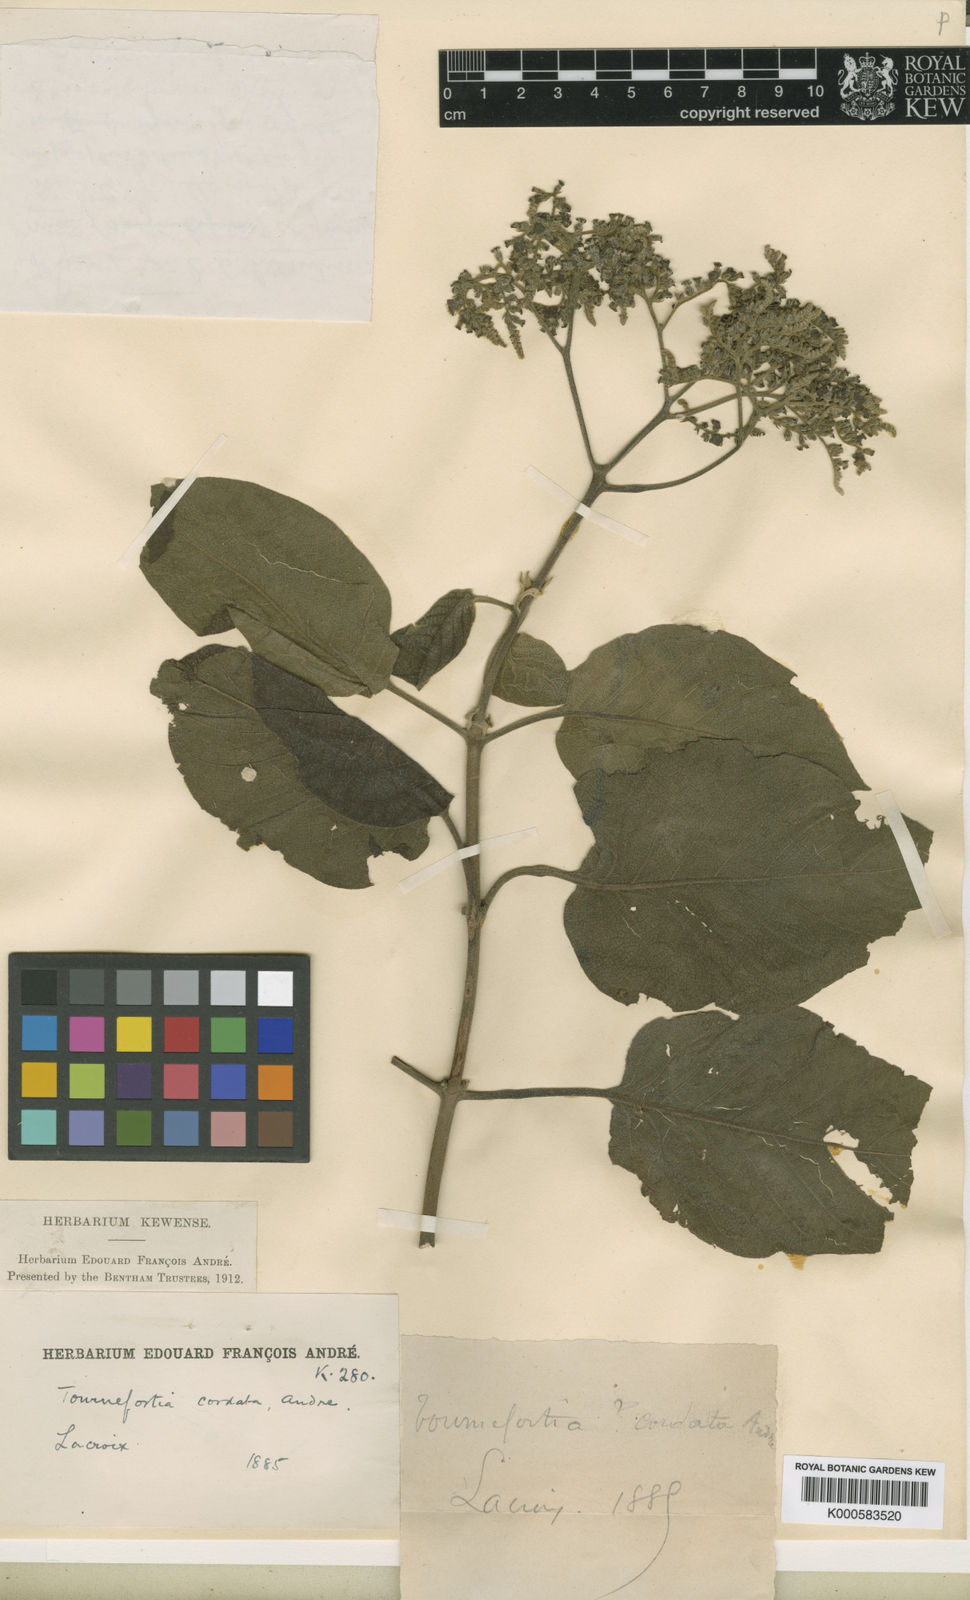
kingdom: Plantae
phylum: Tracheophyta
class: Magnoliopsida
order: Boraginales
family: Heliotropiaceae
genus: Tournefortia
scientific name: Tournefortia polystachya
